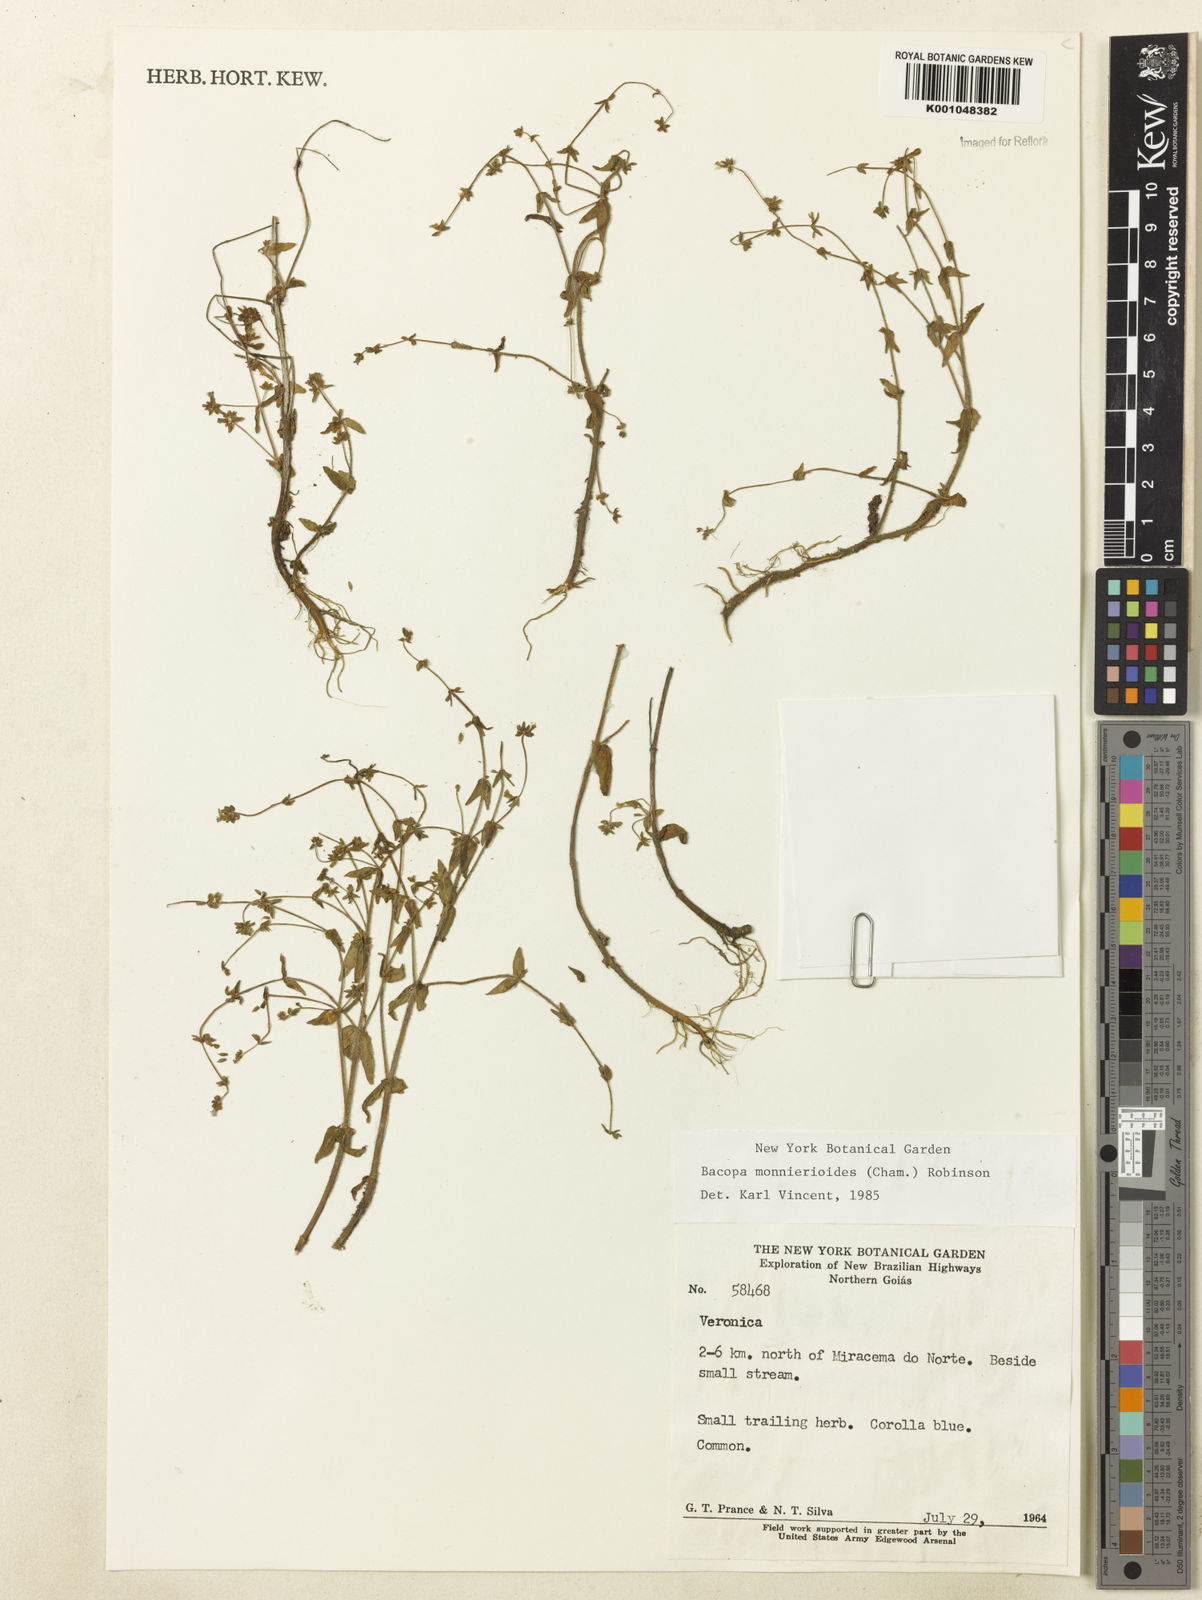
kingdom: Plantae
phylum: Tracheophyta
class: Magnoliopsida
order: Lamiales
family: Plantaginaceae
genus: Bacopa
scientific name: Bacopa monnierioides
